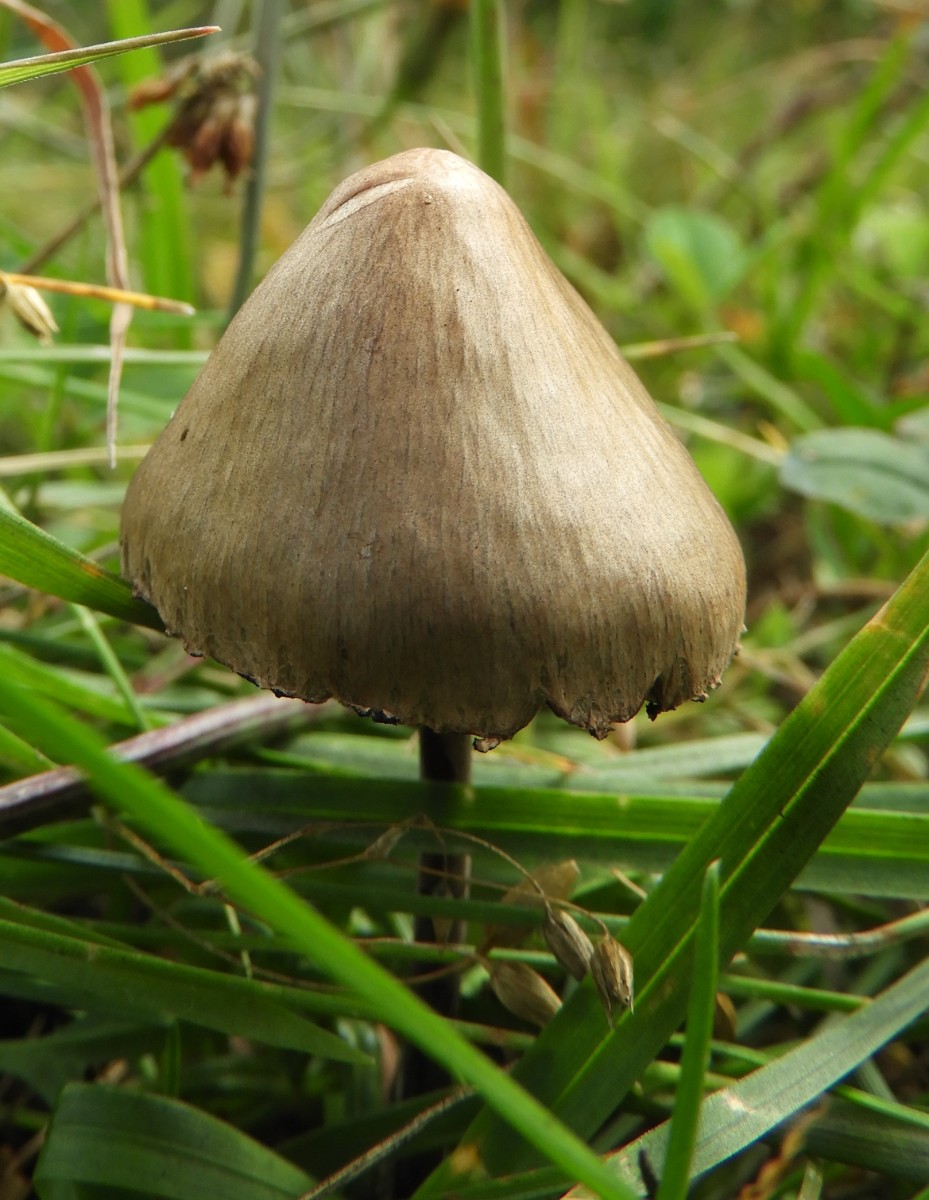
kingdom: Fungi
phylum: Basidiomycota
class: Agaricomycetes
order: Agaricales
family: Bolbitiaceae
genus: Panaeolus
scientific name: Panaeolus papilionaceus
